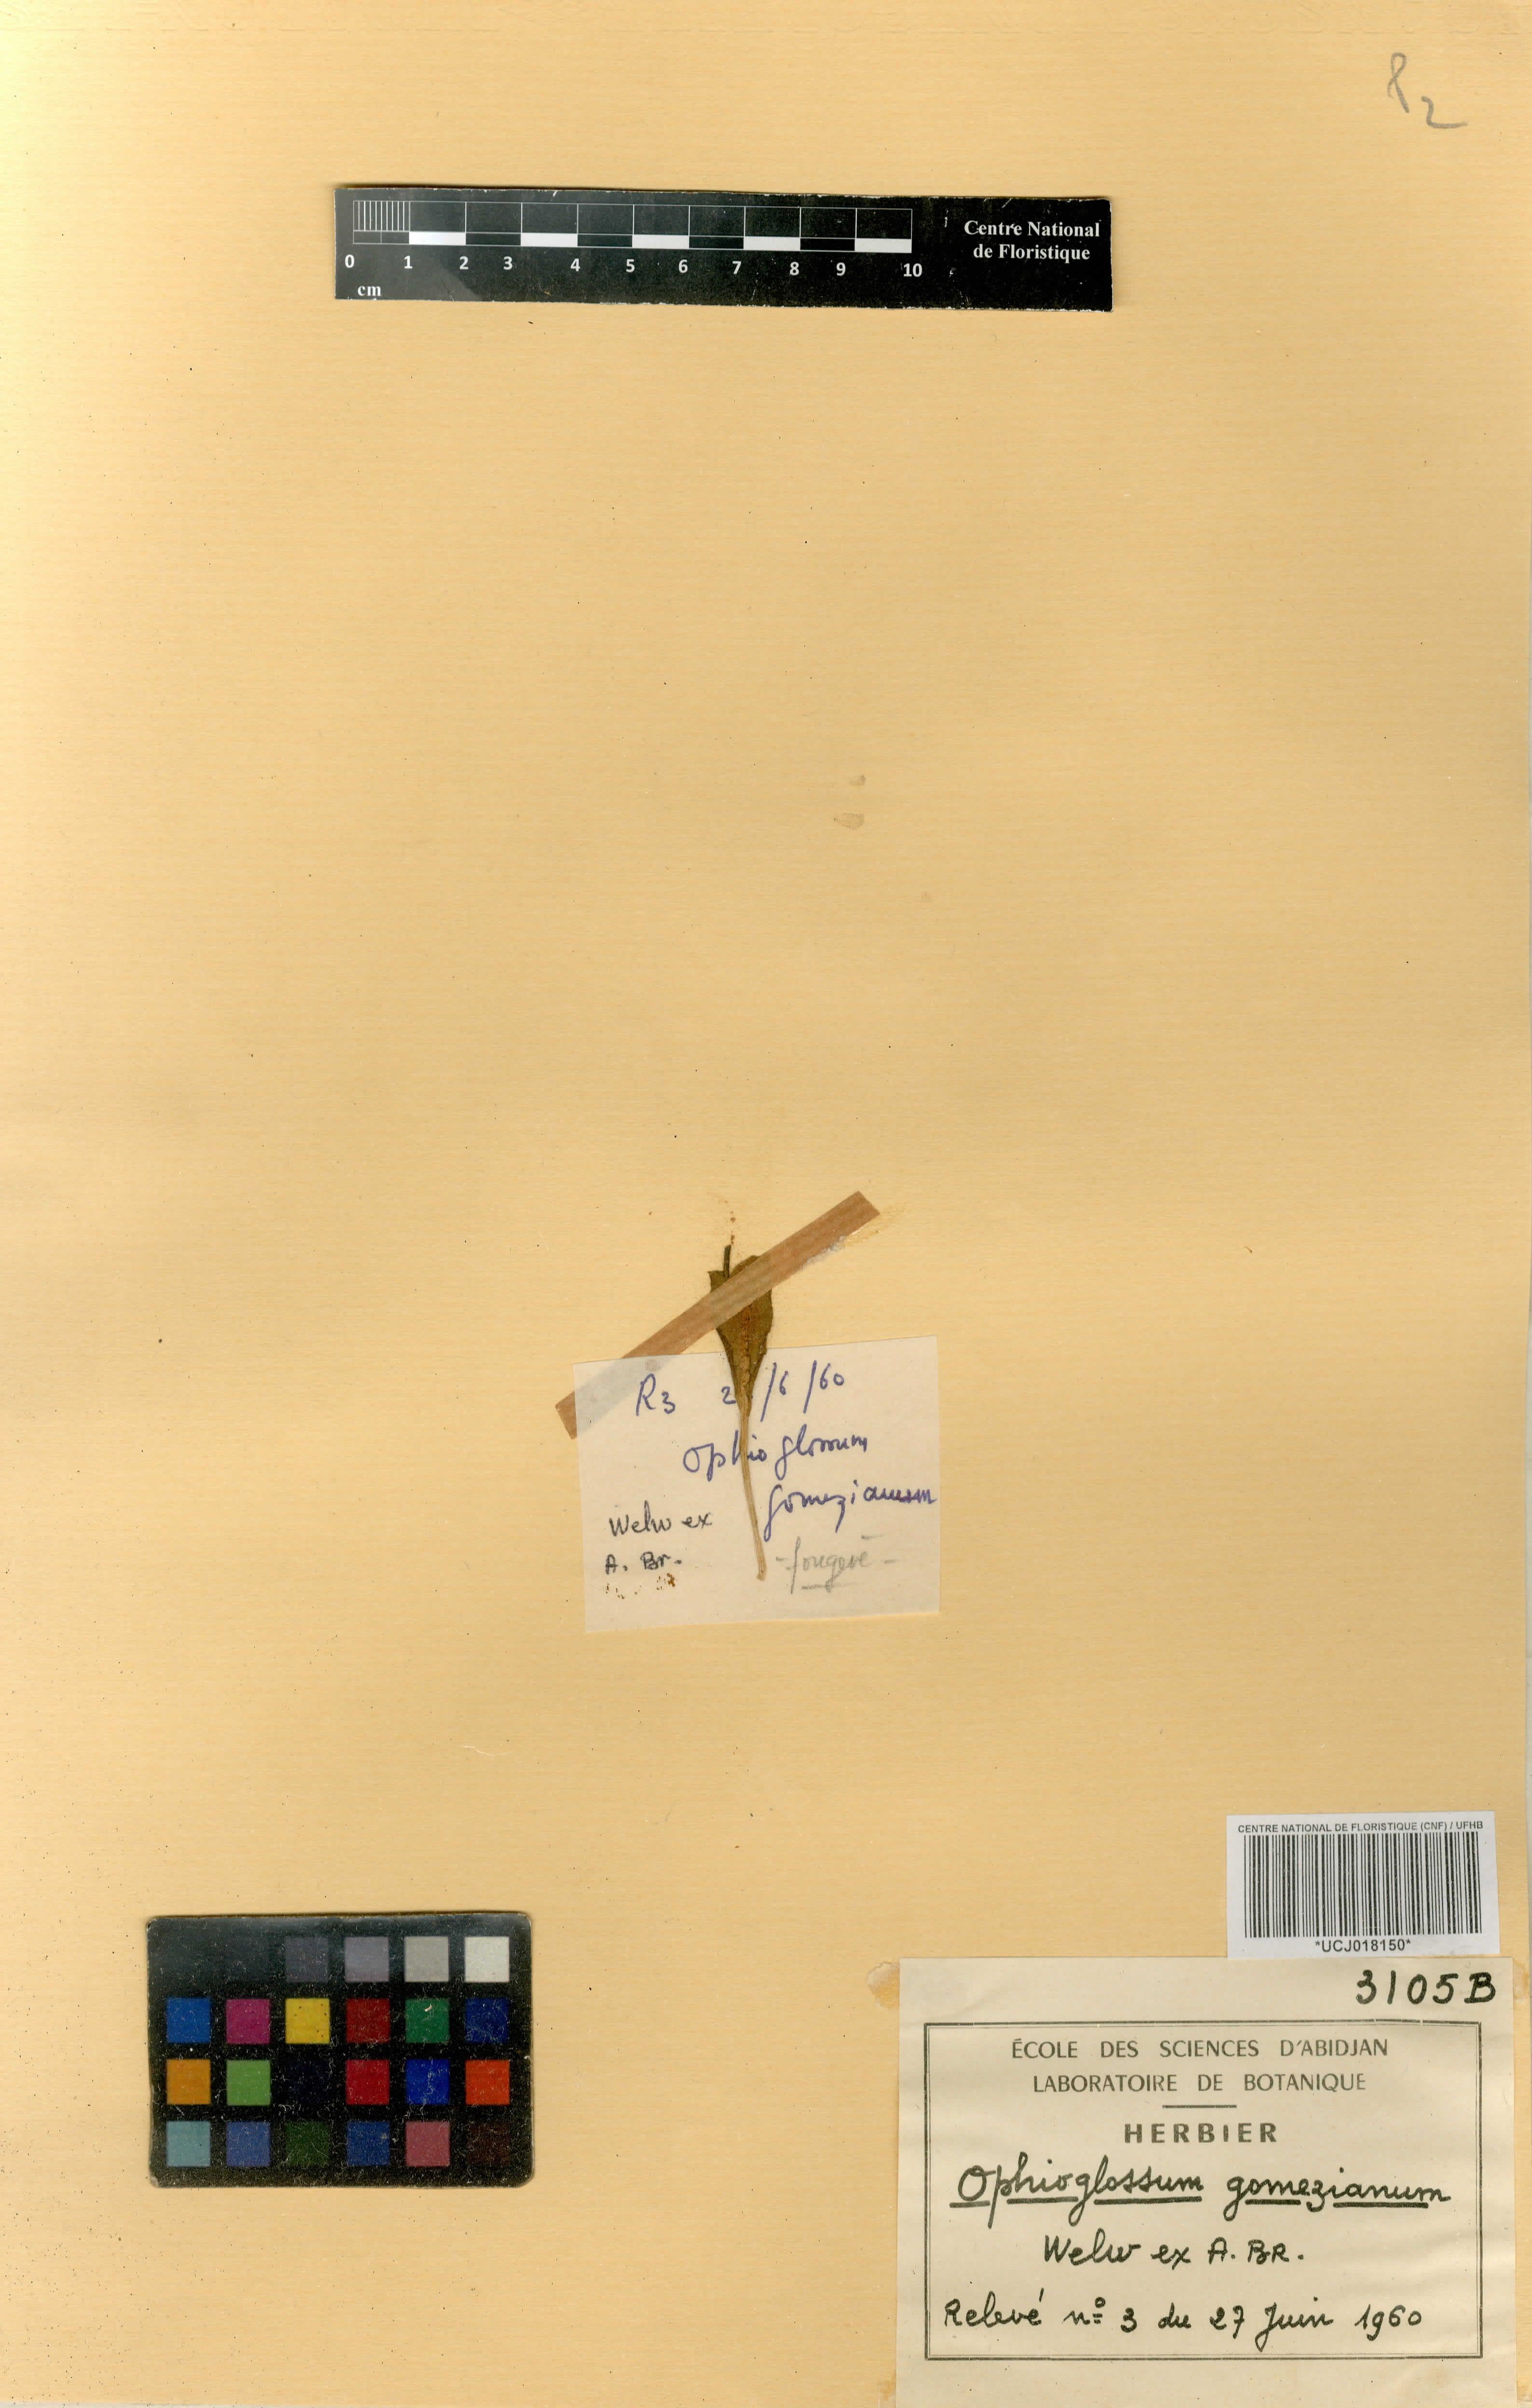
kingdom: Plantae
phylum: Tracheophyta
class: Polypodiopsida
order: Ophioglossales
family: Ophioglossaceae
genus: Ophioglossum
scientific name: Ophioglossum gomezianum
